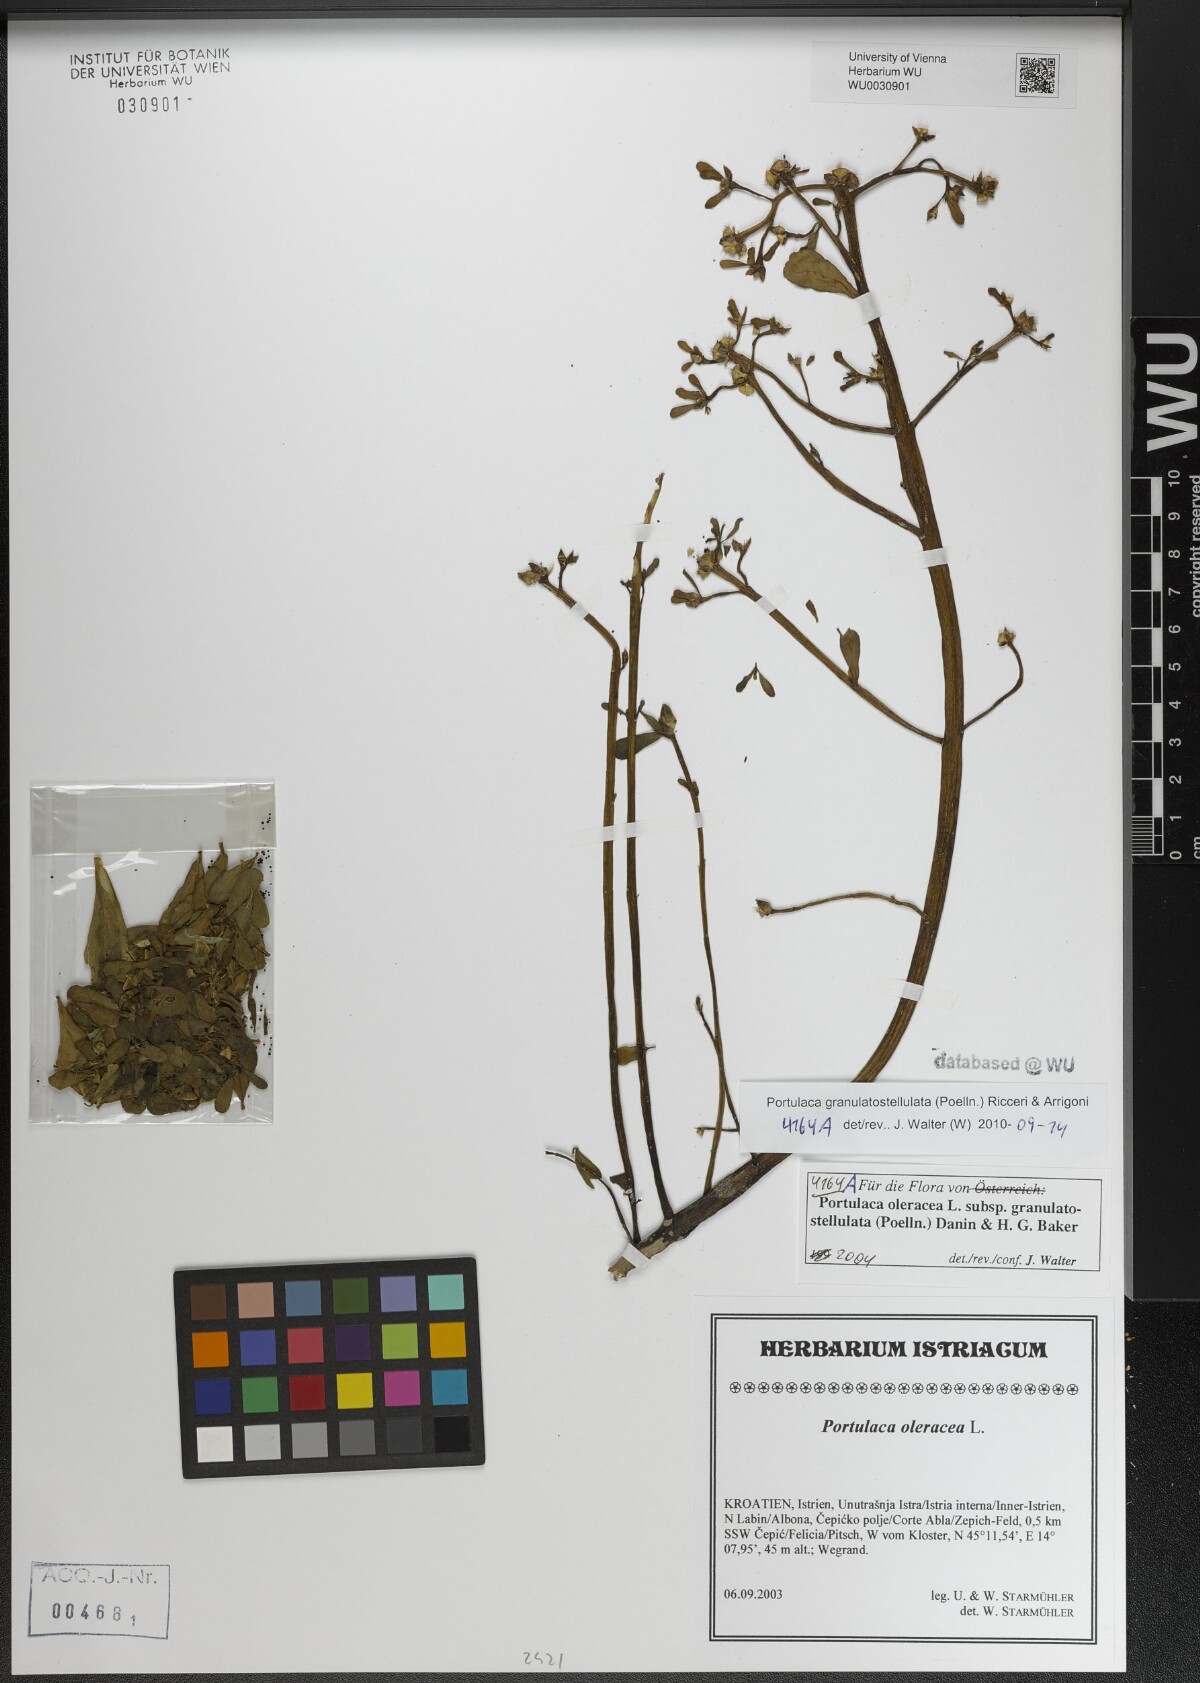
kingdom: Plantae
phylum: Tracheophyta
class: Magnoliopsida
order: Caryophyllales
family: Portulacaceae
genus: Portulaca
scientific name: Portulaca granulatostellulata
